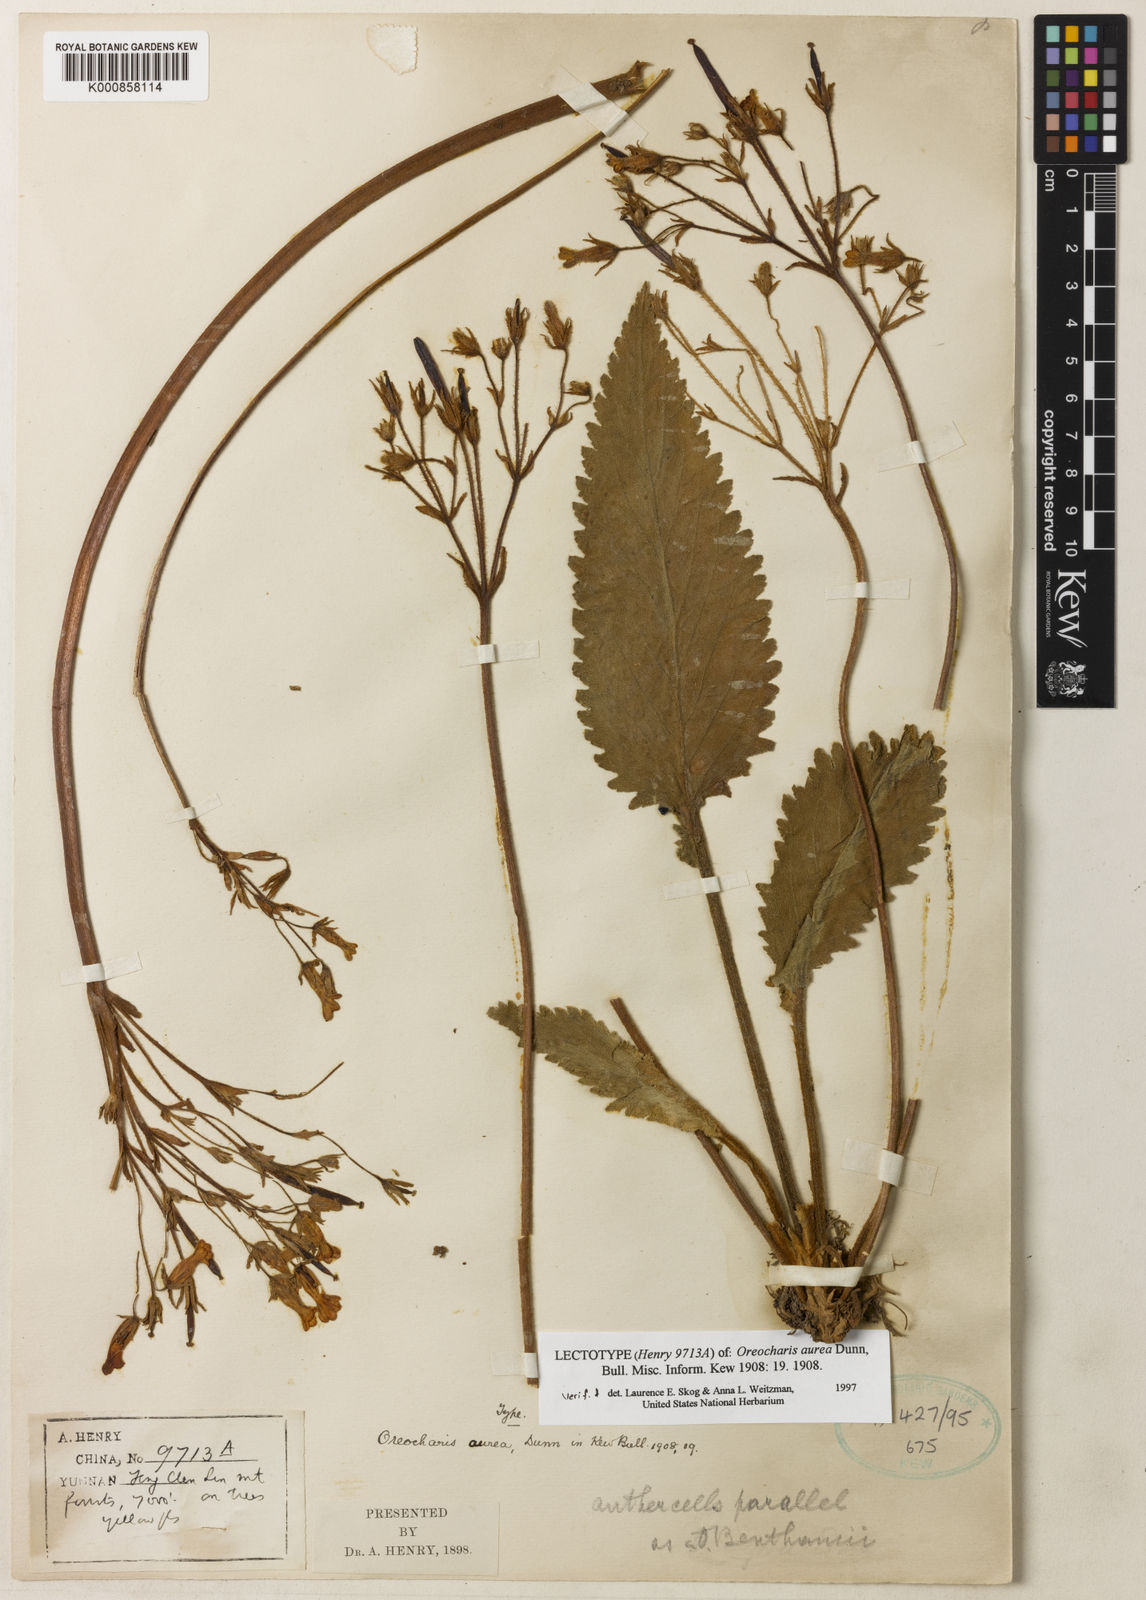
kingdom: Plantae
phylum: Tracheophyta
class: Magnoliopsida
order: Lamiales
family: Gesneriaceae
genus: Oreocharis
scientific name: Oreocharis aurea
